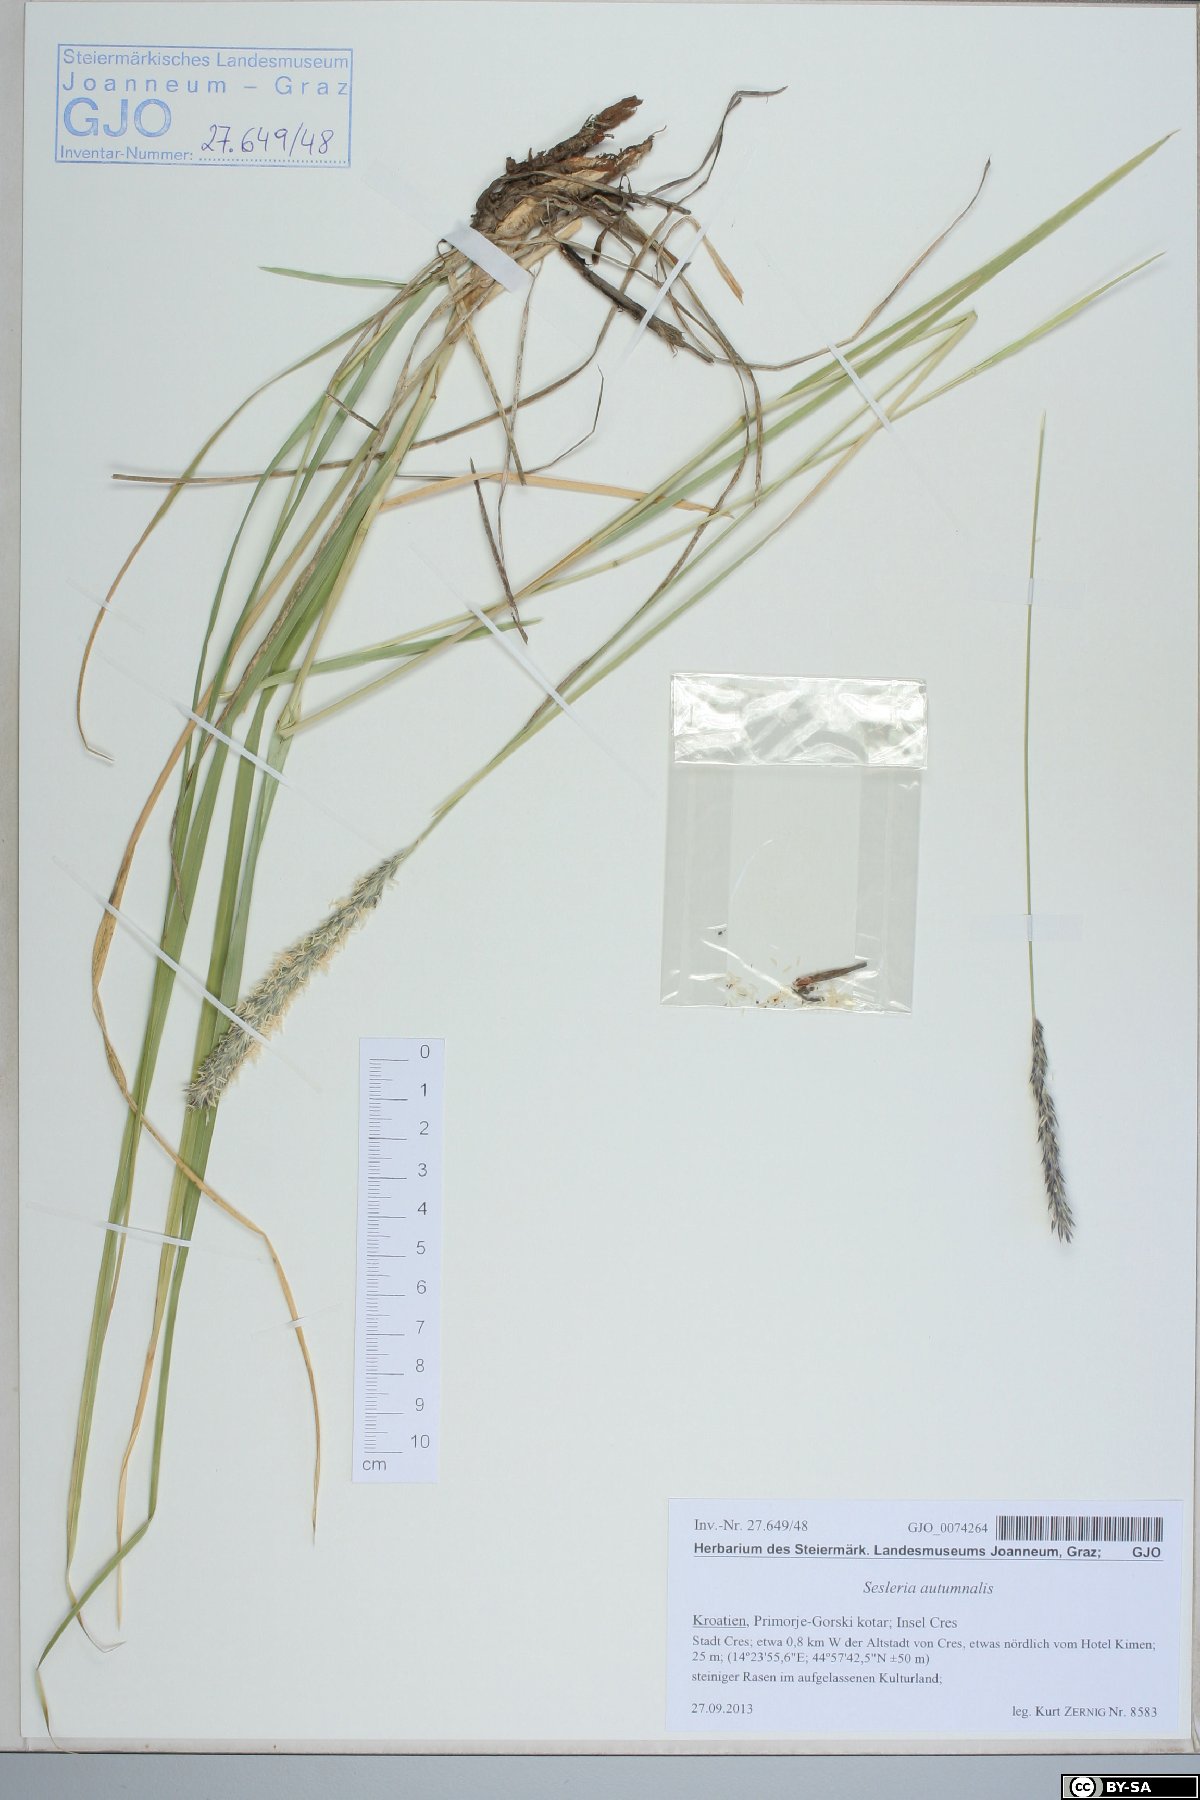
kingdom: Plantae
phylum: Tracheophyta
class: Liliopsida
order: Poales
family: Poaceae
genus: Sesleria
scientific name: Sesleria autumnalis
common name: Autumn moor grass
